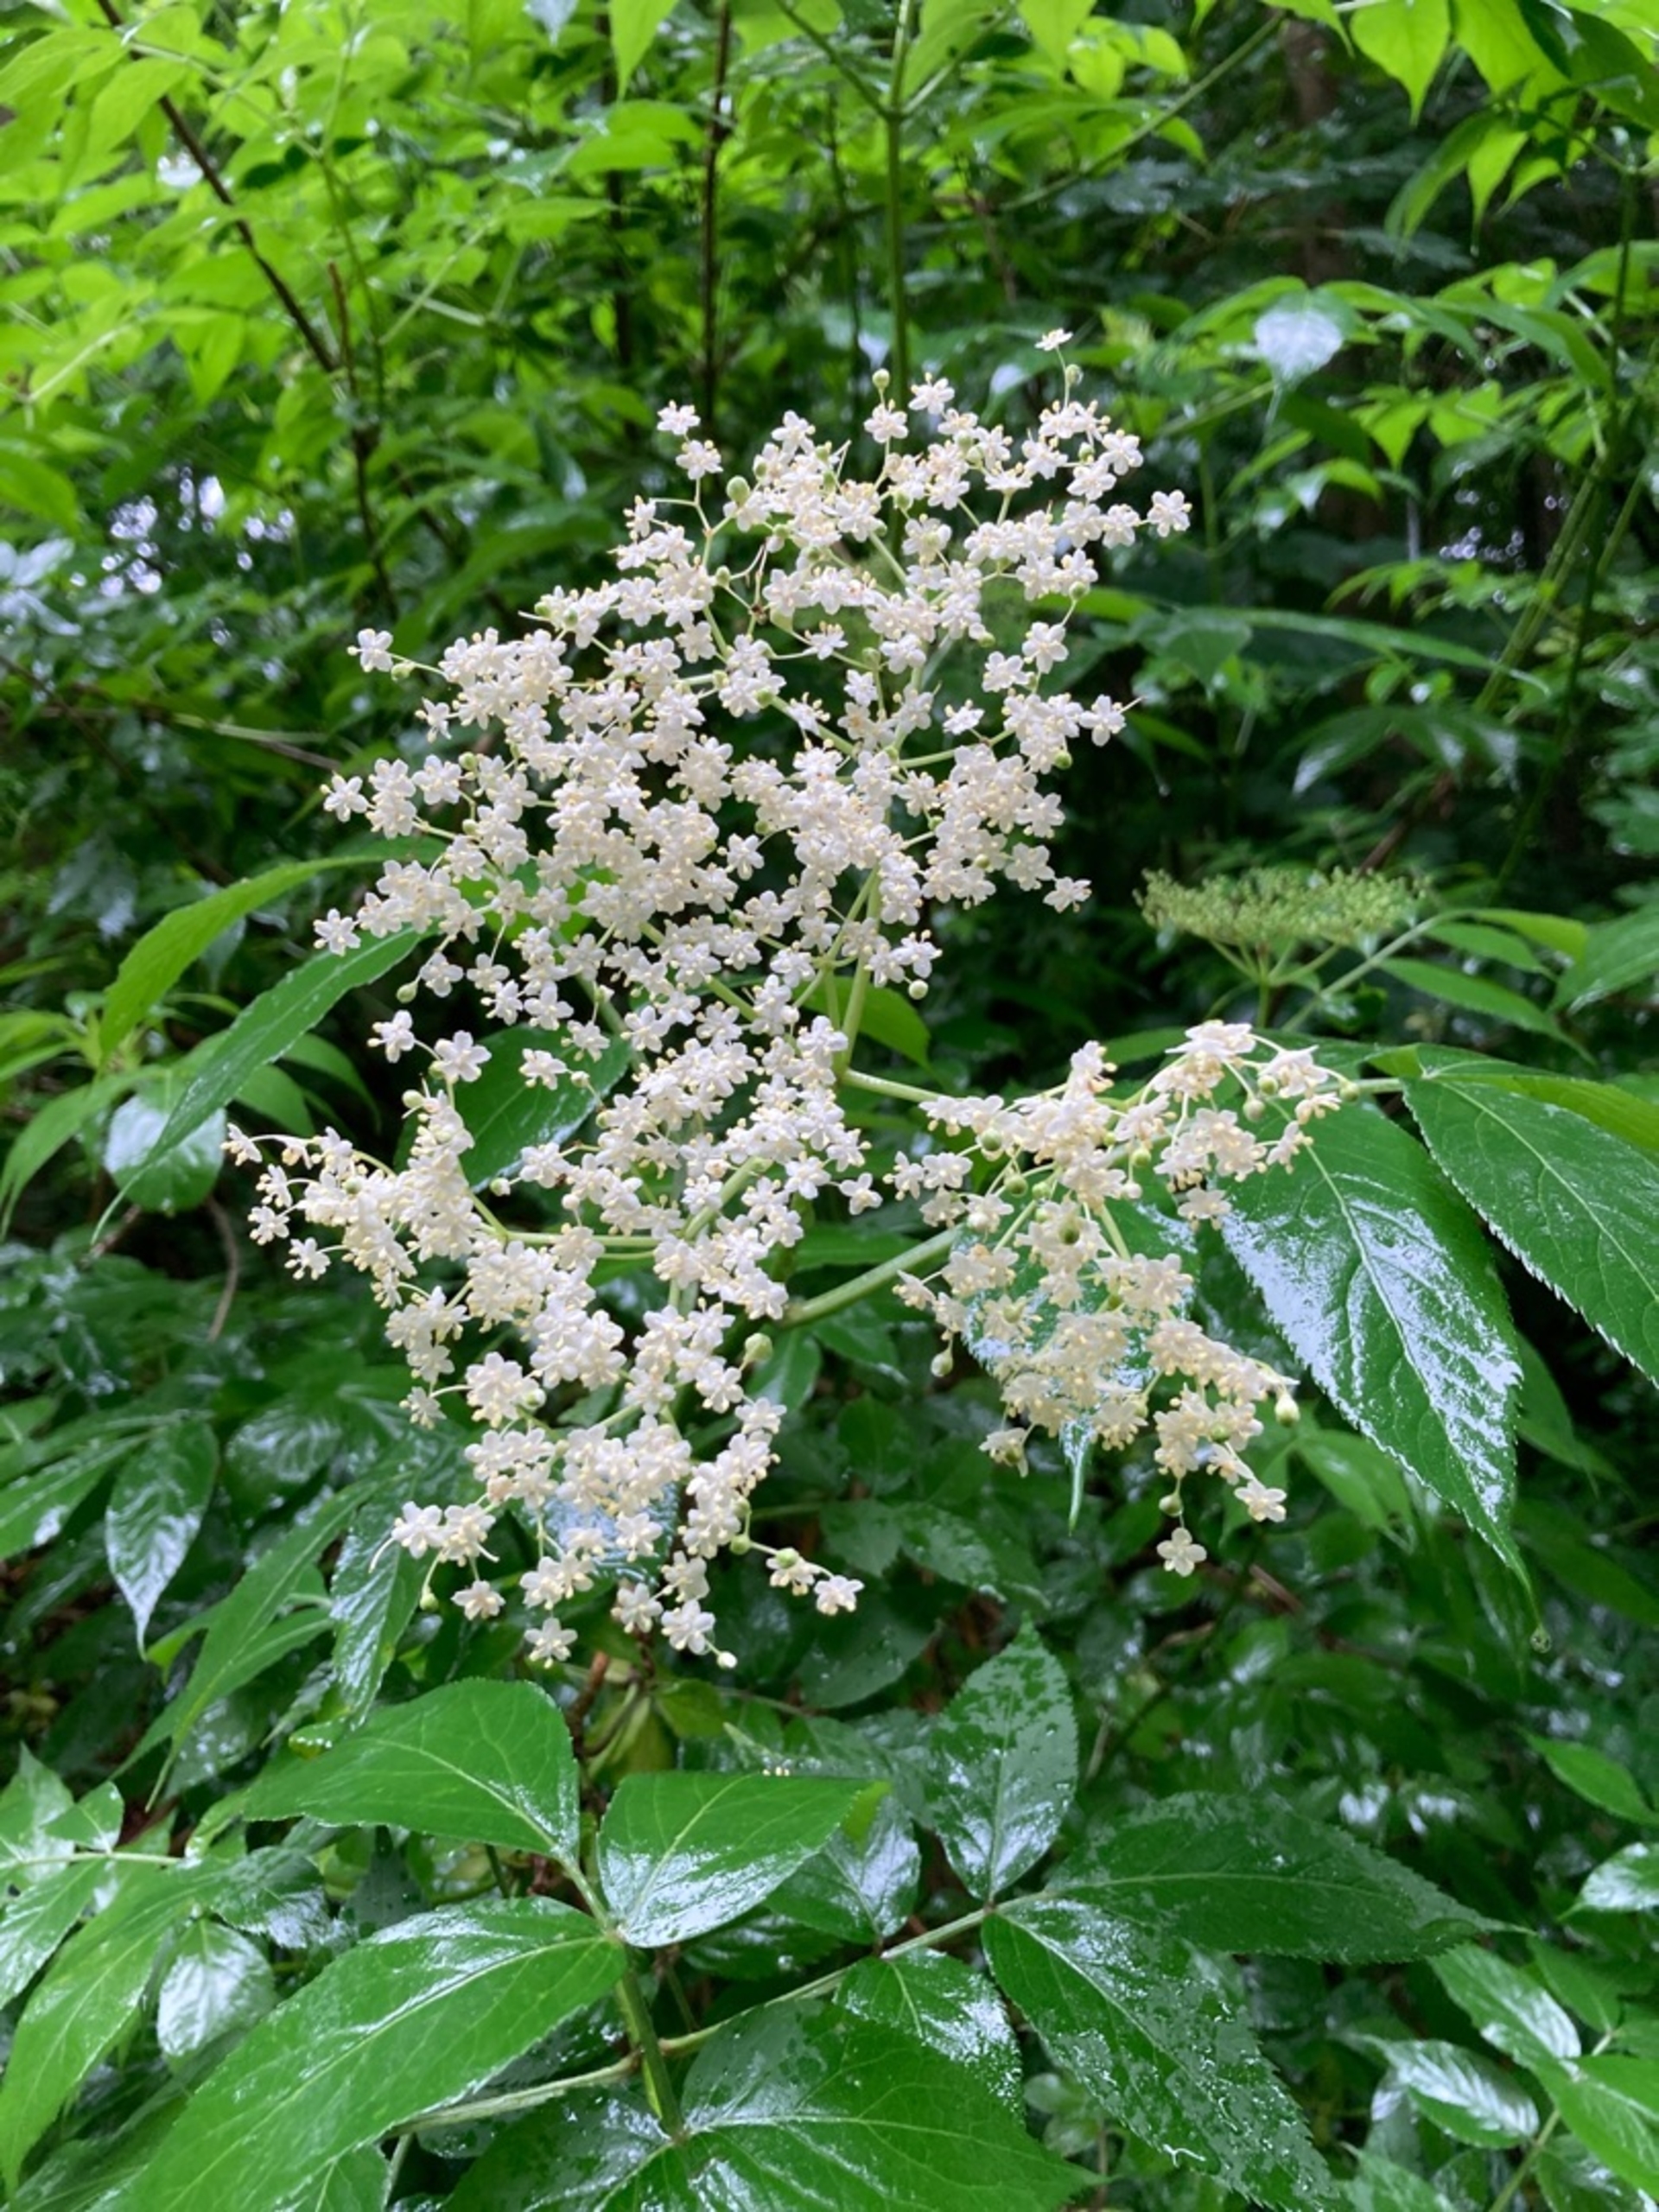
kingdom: Plantae
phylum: Tracheophyta
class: Magnoliopsida
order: Dipsacales
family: Viburnaceae
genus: Sambucus
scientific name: Sambucus nigra
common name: Almindelig hyld
